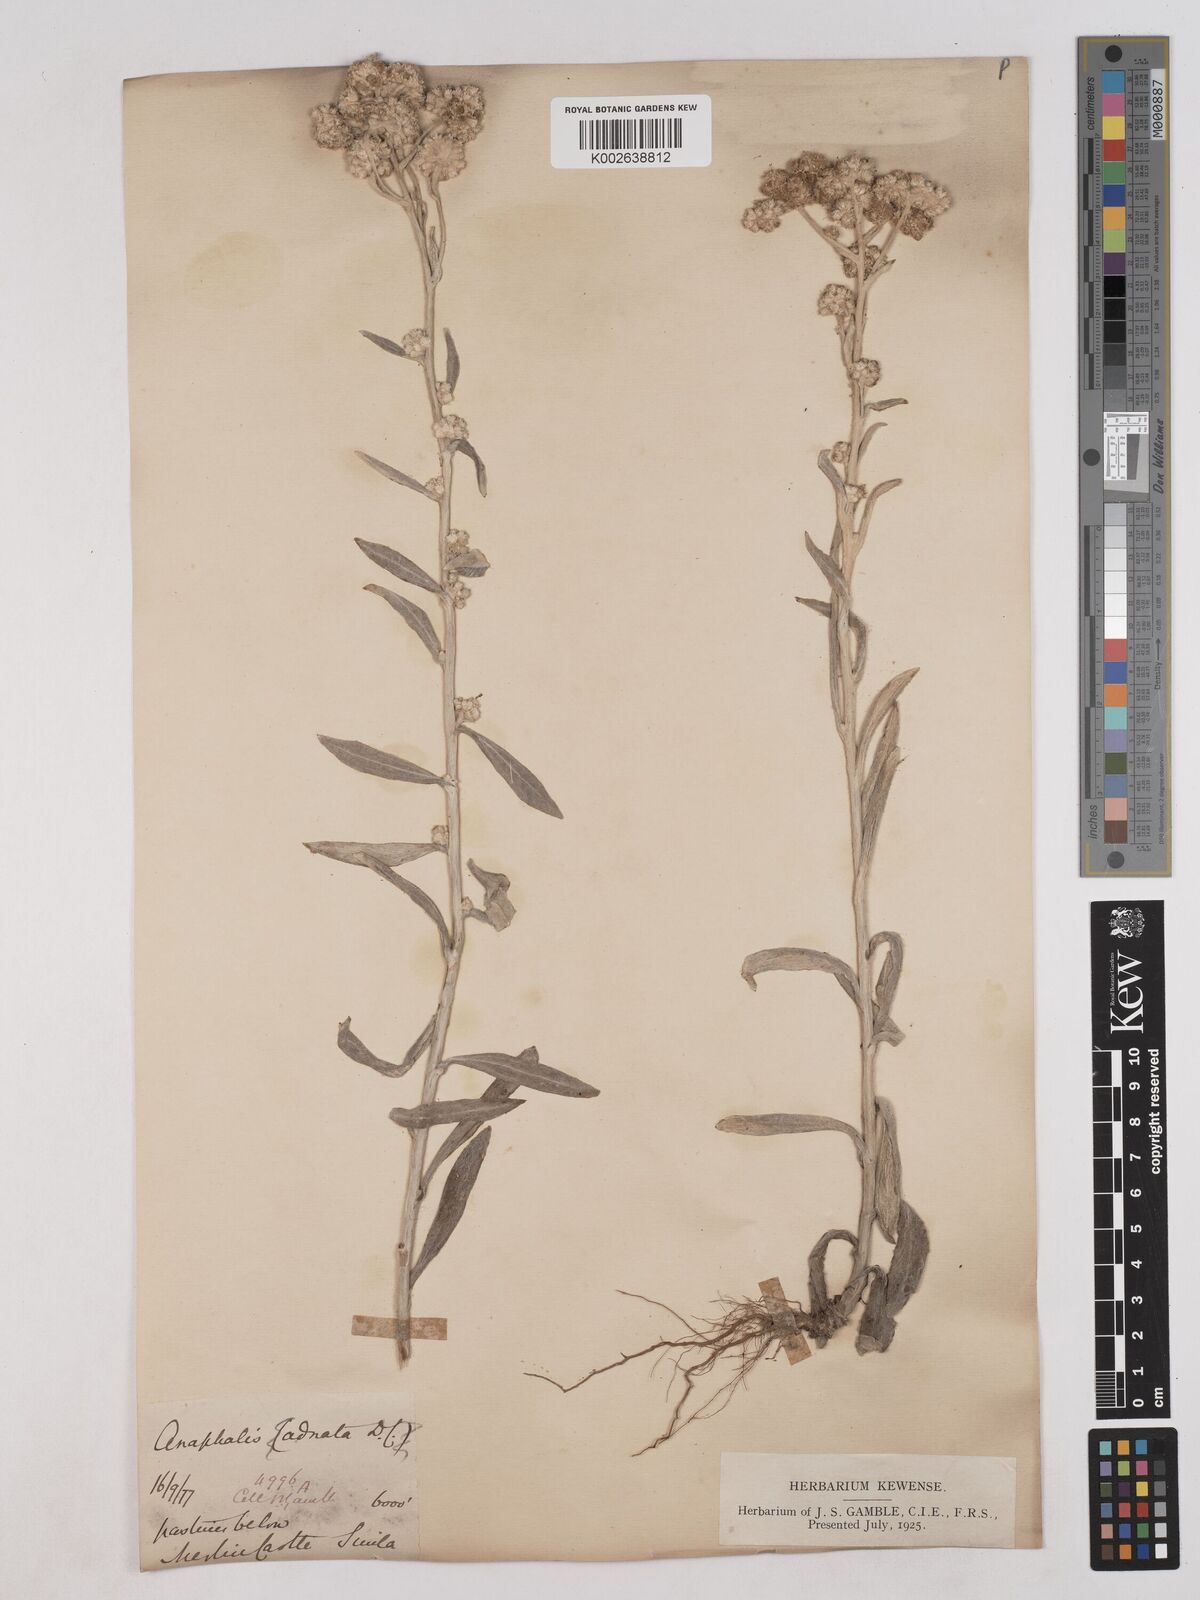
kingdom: Plantae
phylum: Tracheophyta
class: Magnoliopsida
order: Asterales
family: Asteraceae
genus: Pseudognaphalium
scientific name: Pseudognaphalium adnatum
